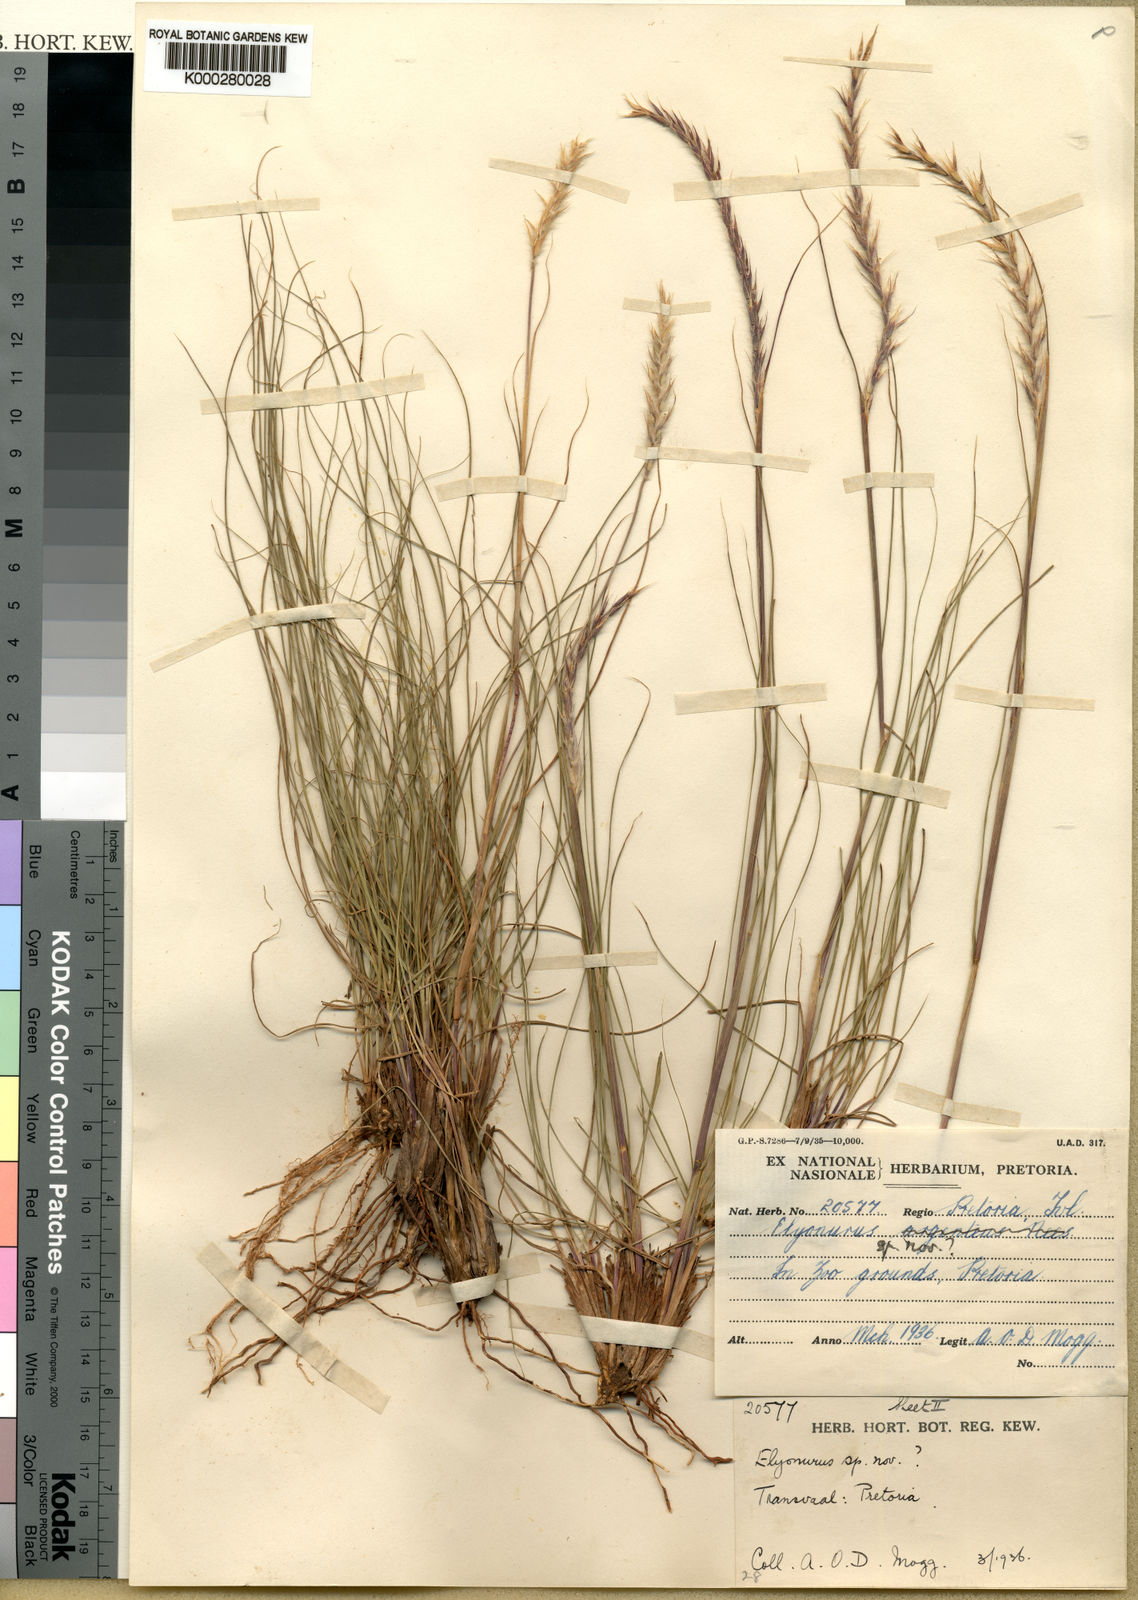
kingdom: Plantae
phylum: Tracheophyta
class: Liliopsida
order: Poales
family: Poaceae
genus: Elionurus
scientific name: Elionurus muticus
